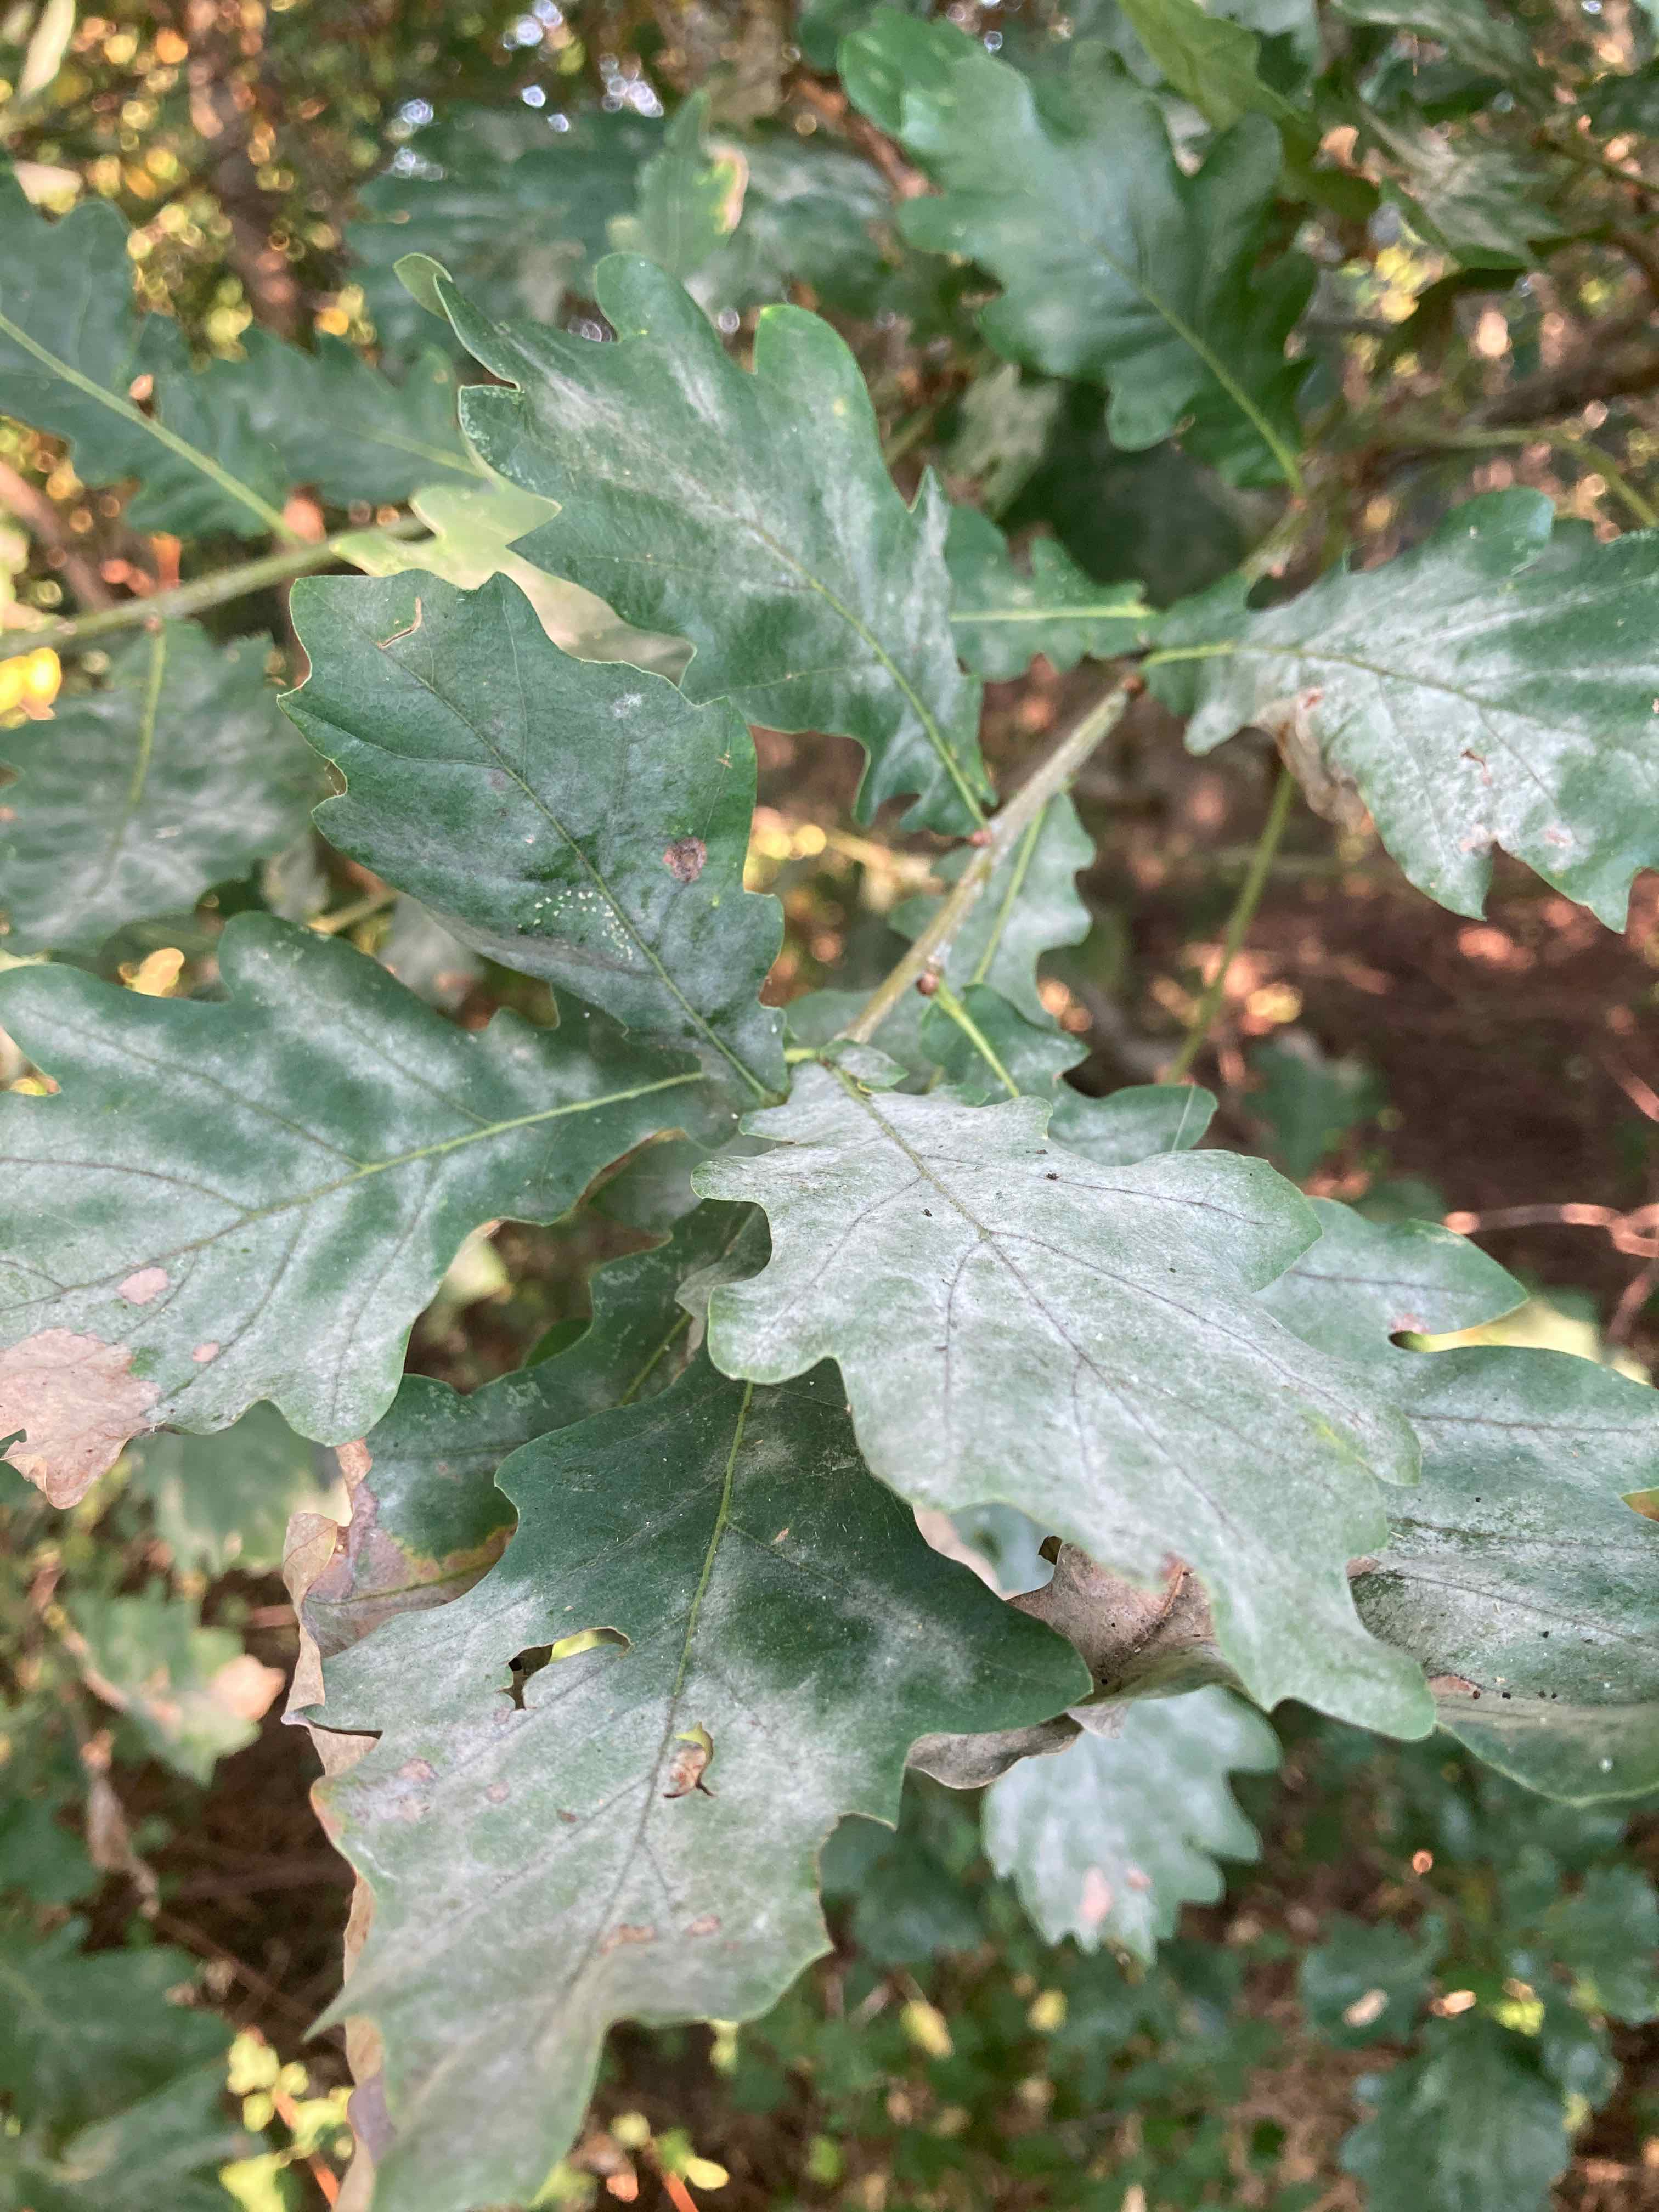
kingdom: Fungi
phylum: Ascomycota
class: Leotiomycetes
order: Helotiales
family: Erysiphaceae
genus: Erysiphe
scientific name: Erysiphe alphitoides
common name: ege-meldug
